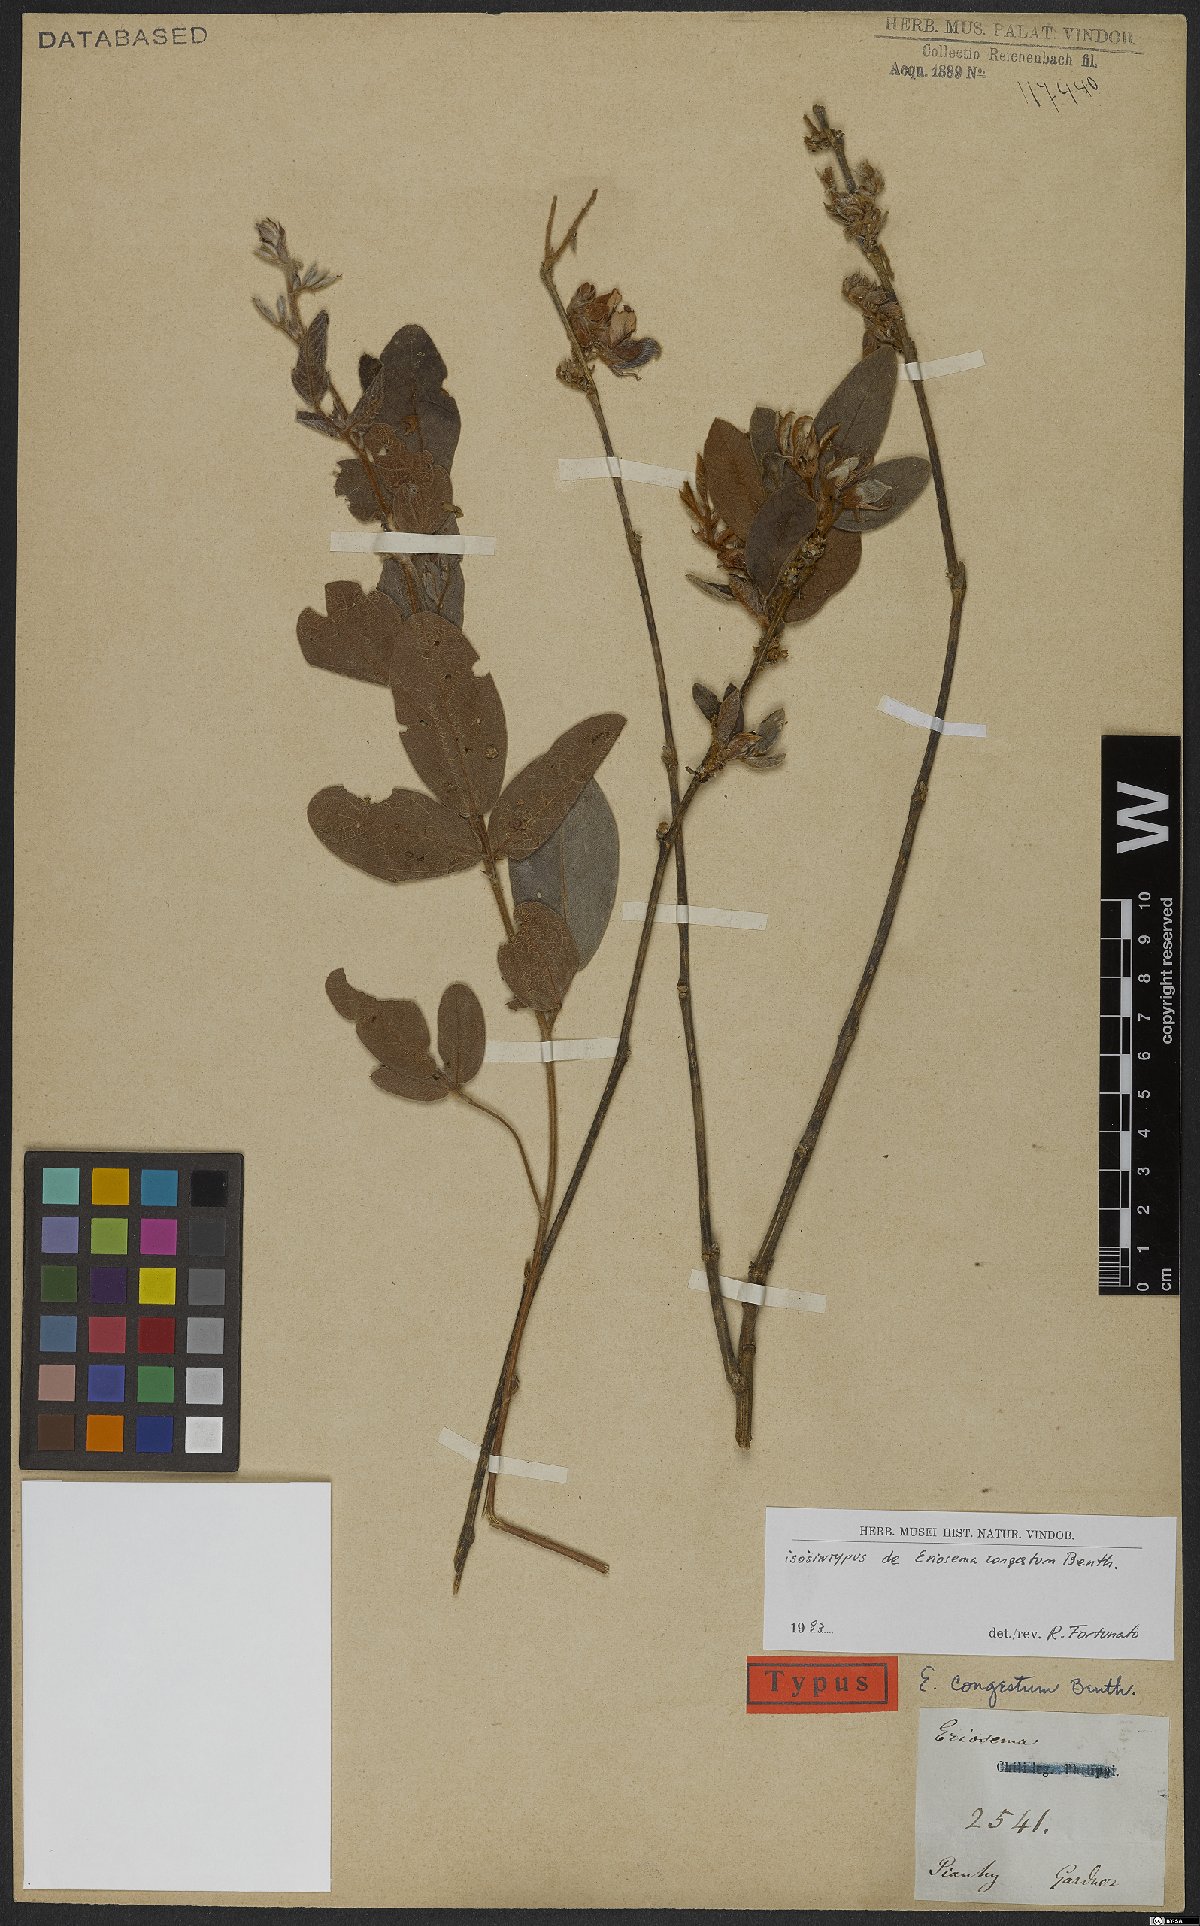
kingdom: Plantae
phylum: Tracheophyta
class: Magnoliopsida
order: Fabales
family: Fabaceae
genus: Eriosema
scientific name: Eriosema congestum
